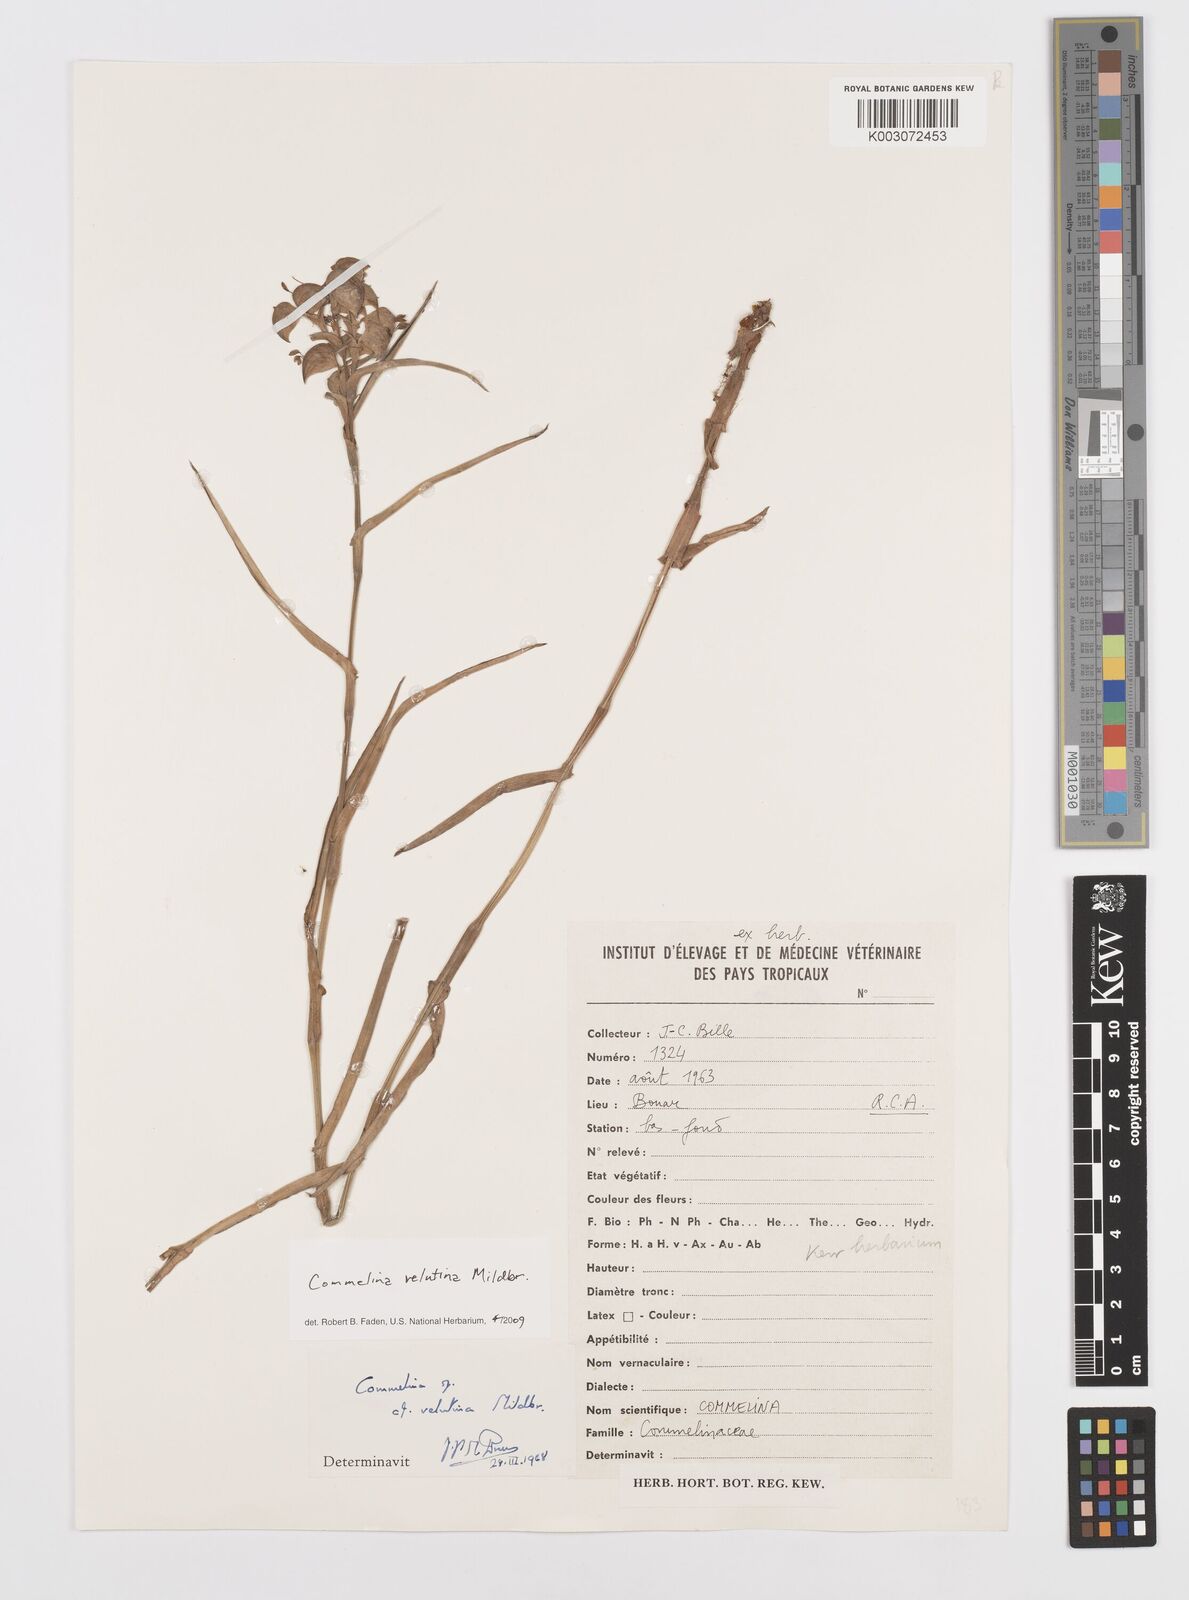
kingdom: Plantae
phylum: Tracheophyta
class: Liliopsida
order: Commelinales
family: Commelinaceae
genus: Commelina
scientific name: Commelina velutina
